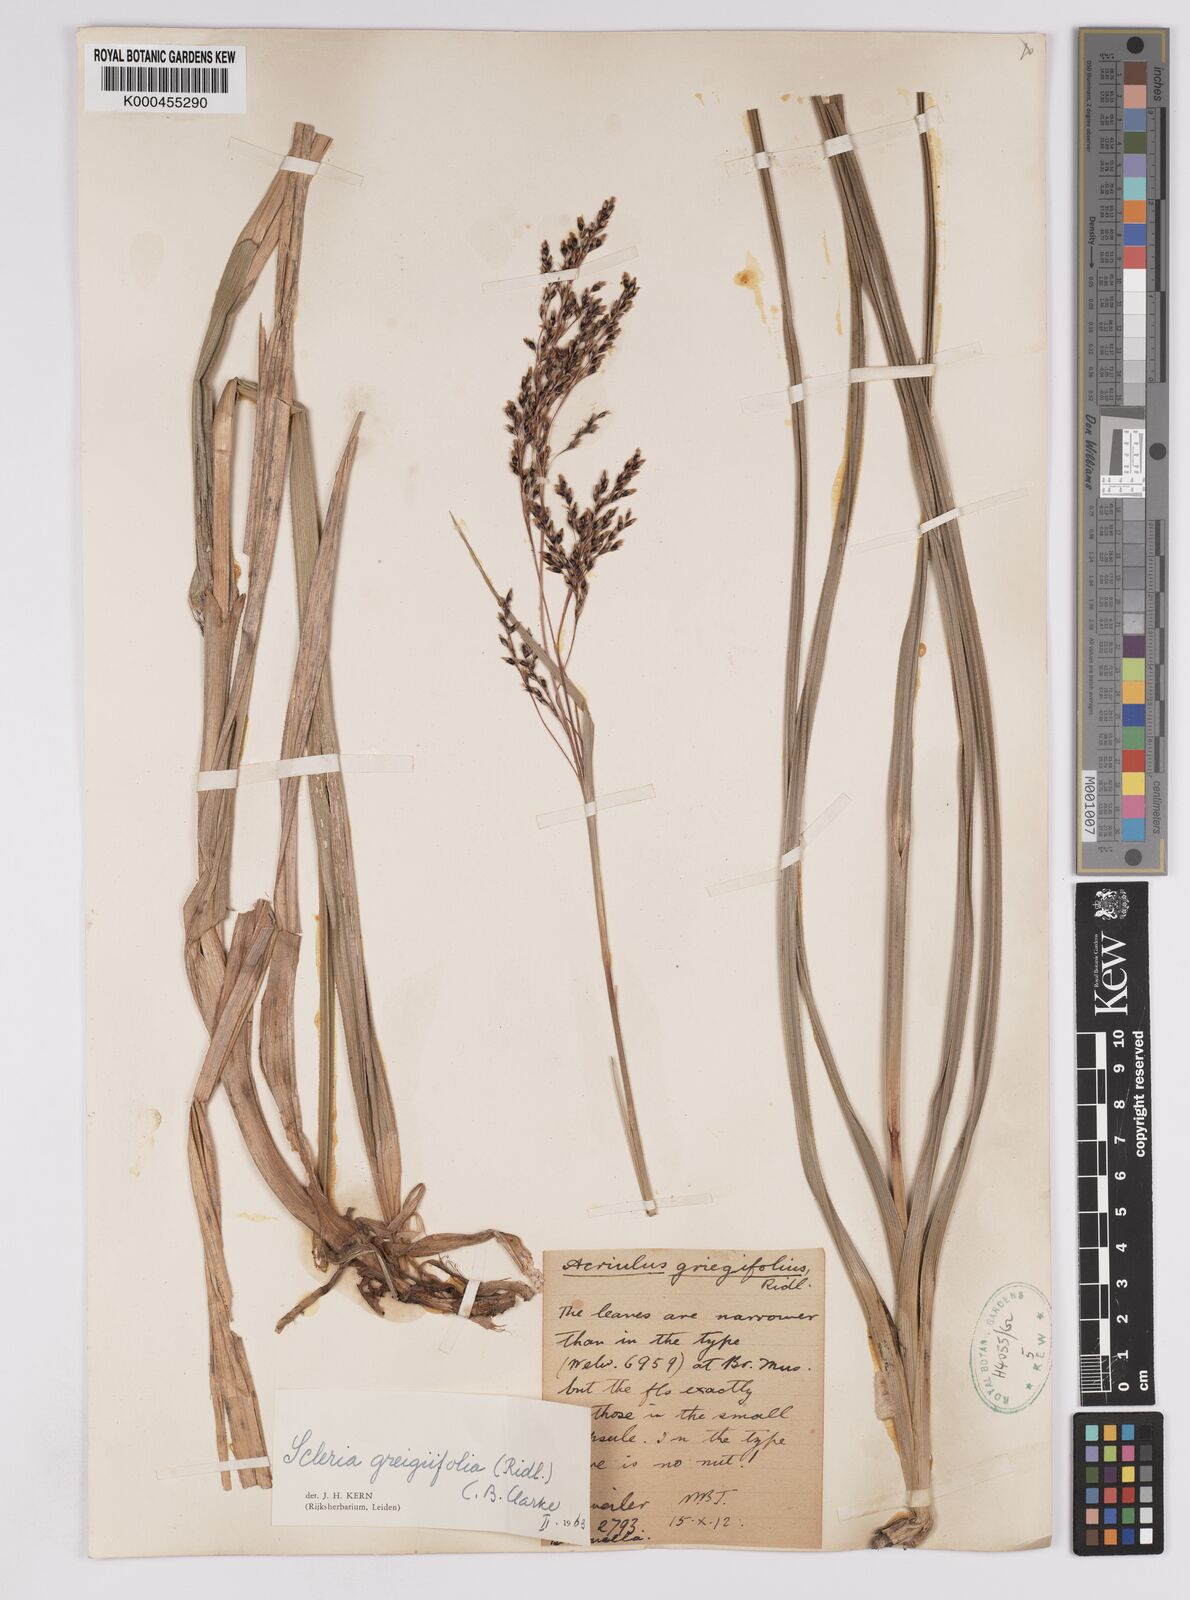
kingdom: Plantae
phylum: Tracheophyta
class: Liliopsida
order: Poales
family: Cyperaceae
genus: Scleria
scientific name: Scleria greigiifolia
